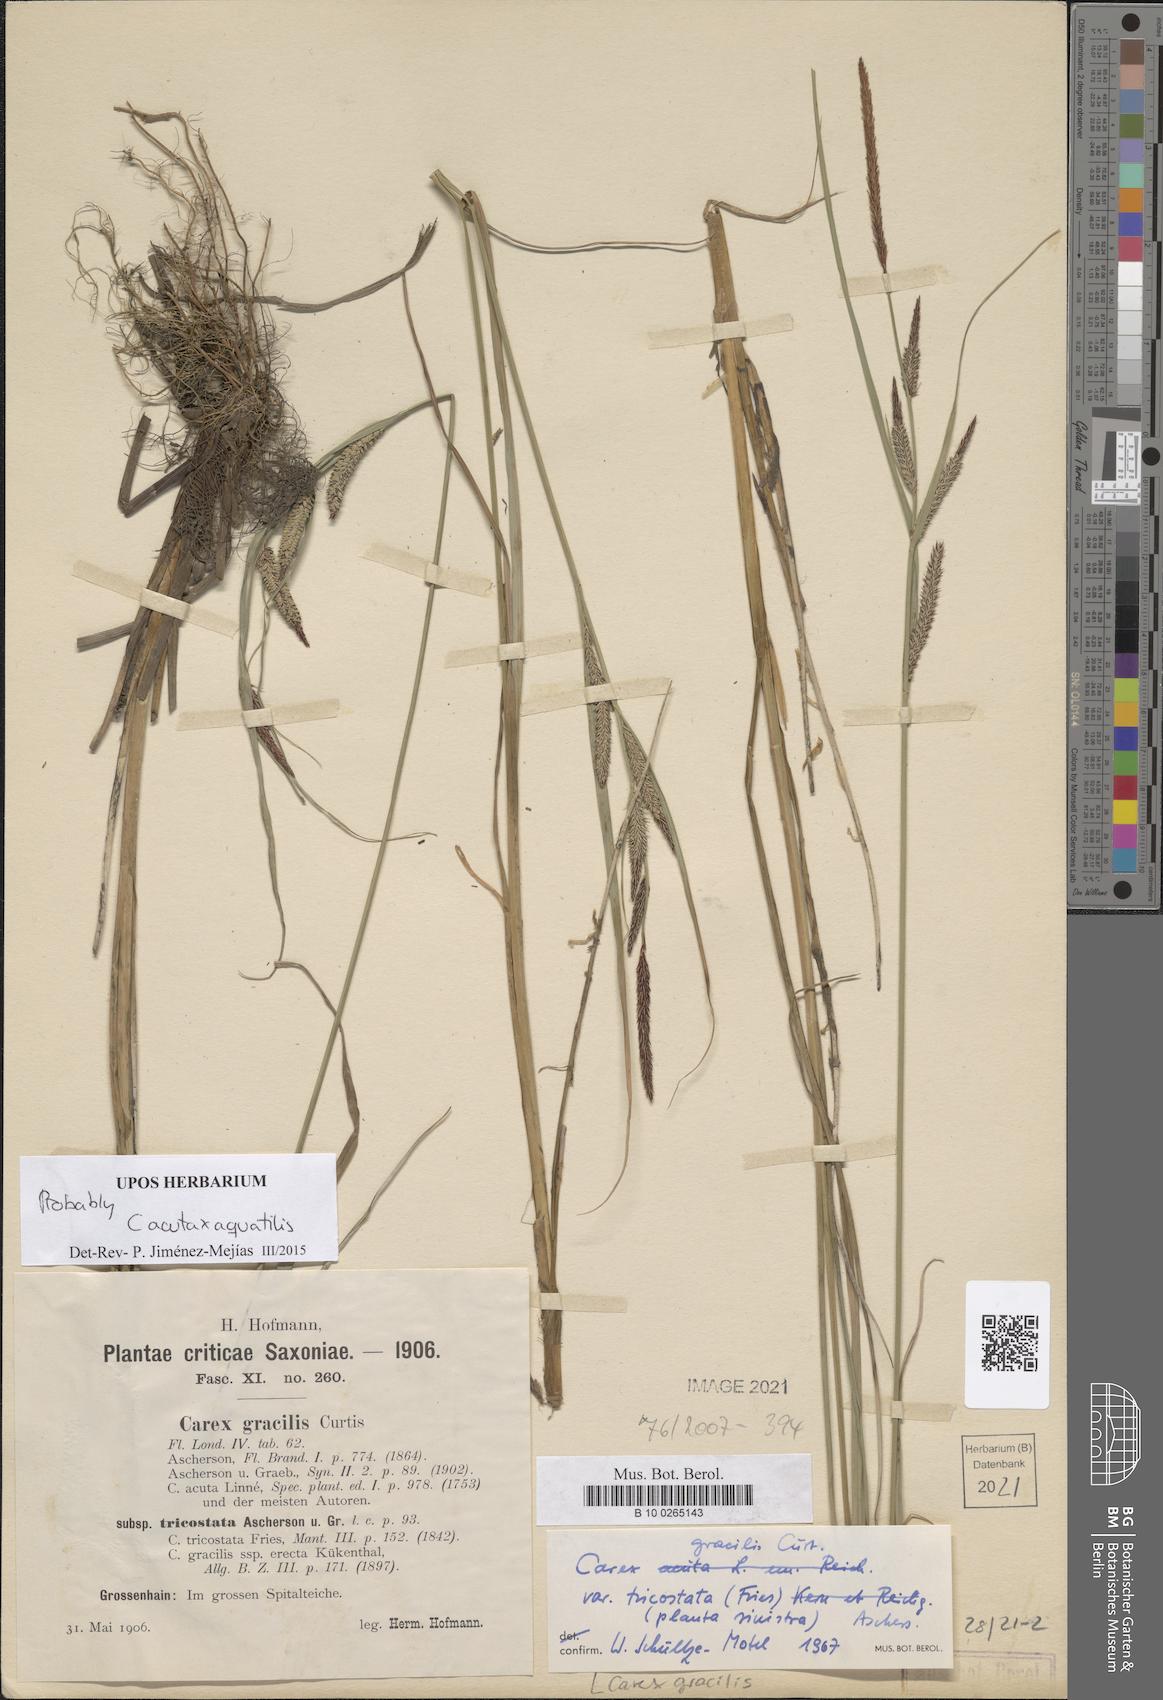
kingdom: Plantae
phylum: Tracheophyta
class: Liliopsida
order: Poales
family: Cyperaceae
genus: Carex
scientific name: Carex acuta
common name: Slender tufted-sedge
